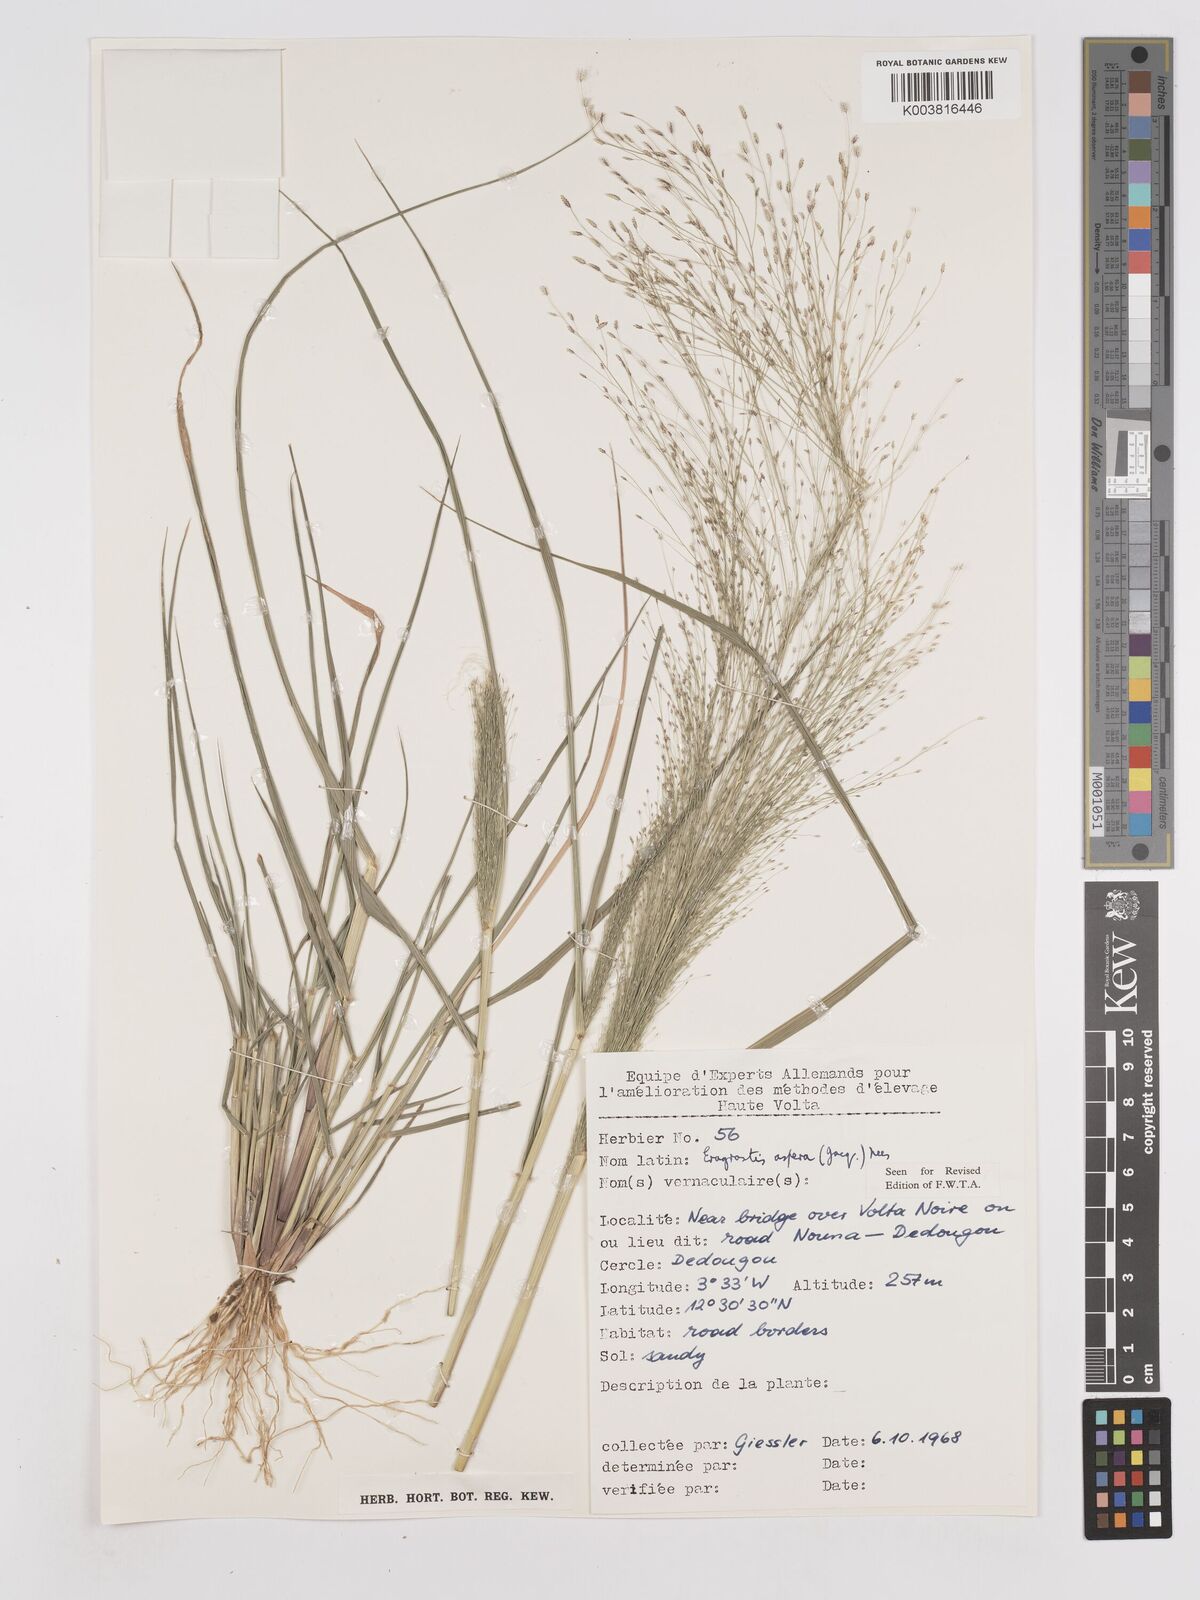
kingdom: Plantae
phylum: Tracheophyta
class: Liliopsida
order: Poales
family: Poaceae
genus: Eragrostis
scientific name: Eragrostis aspera
